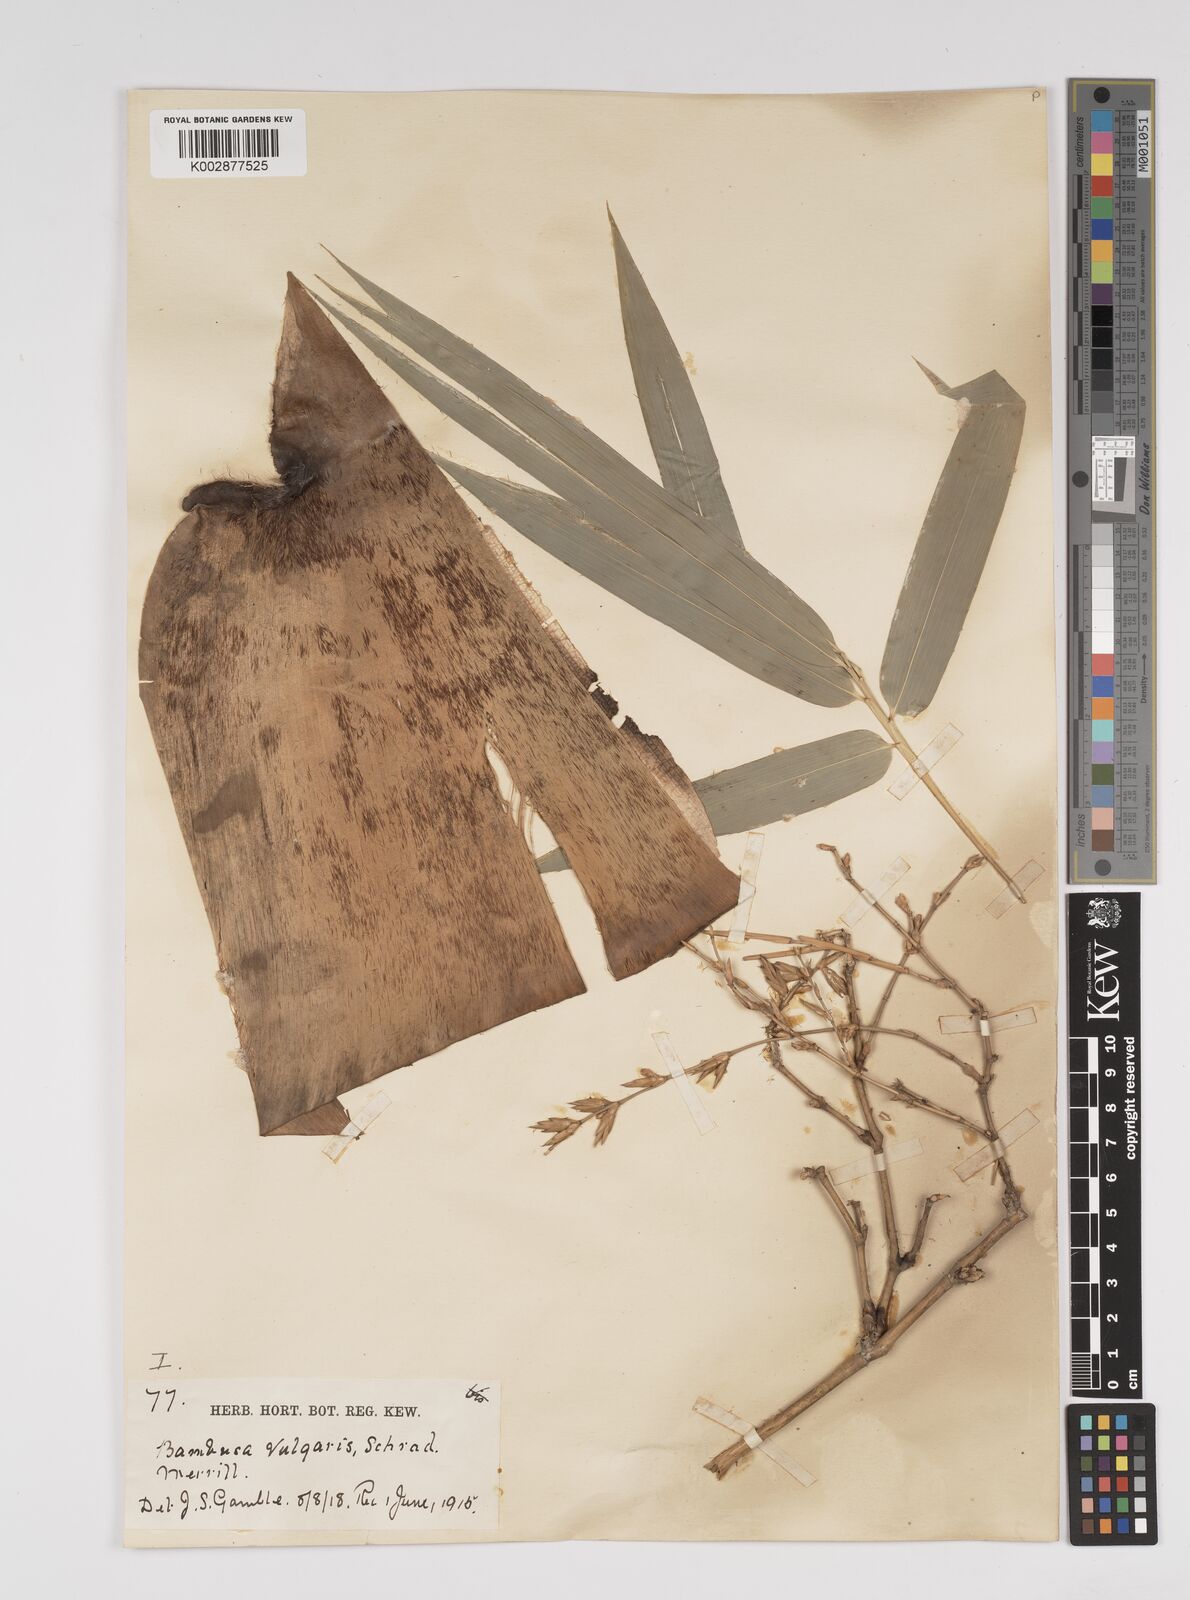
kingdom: Plantae
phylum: Tracheophyta
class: Liliopsida
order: Poales
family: Poaceae
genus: Bambusa
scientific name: Bambusa vulgaris
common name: Common bamboo
